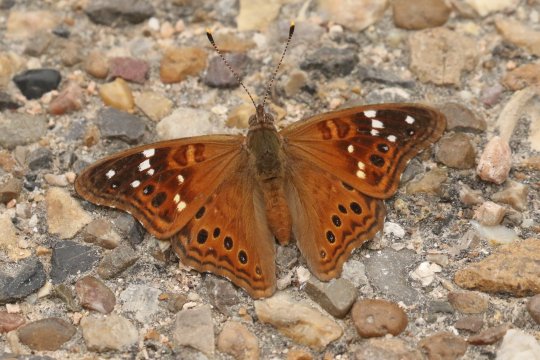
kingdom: Animalia
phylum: Arthropoda
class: Insecta
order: Lepidoptera
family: Nymphalidae
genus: Asterocampa
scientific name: Asterocampa leilia
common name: Empress Leilia
